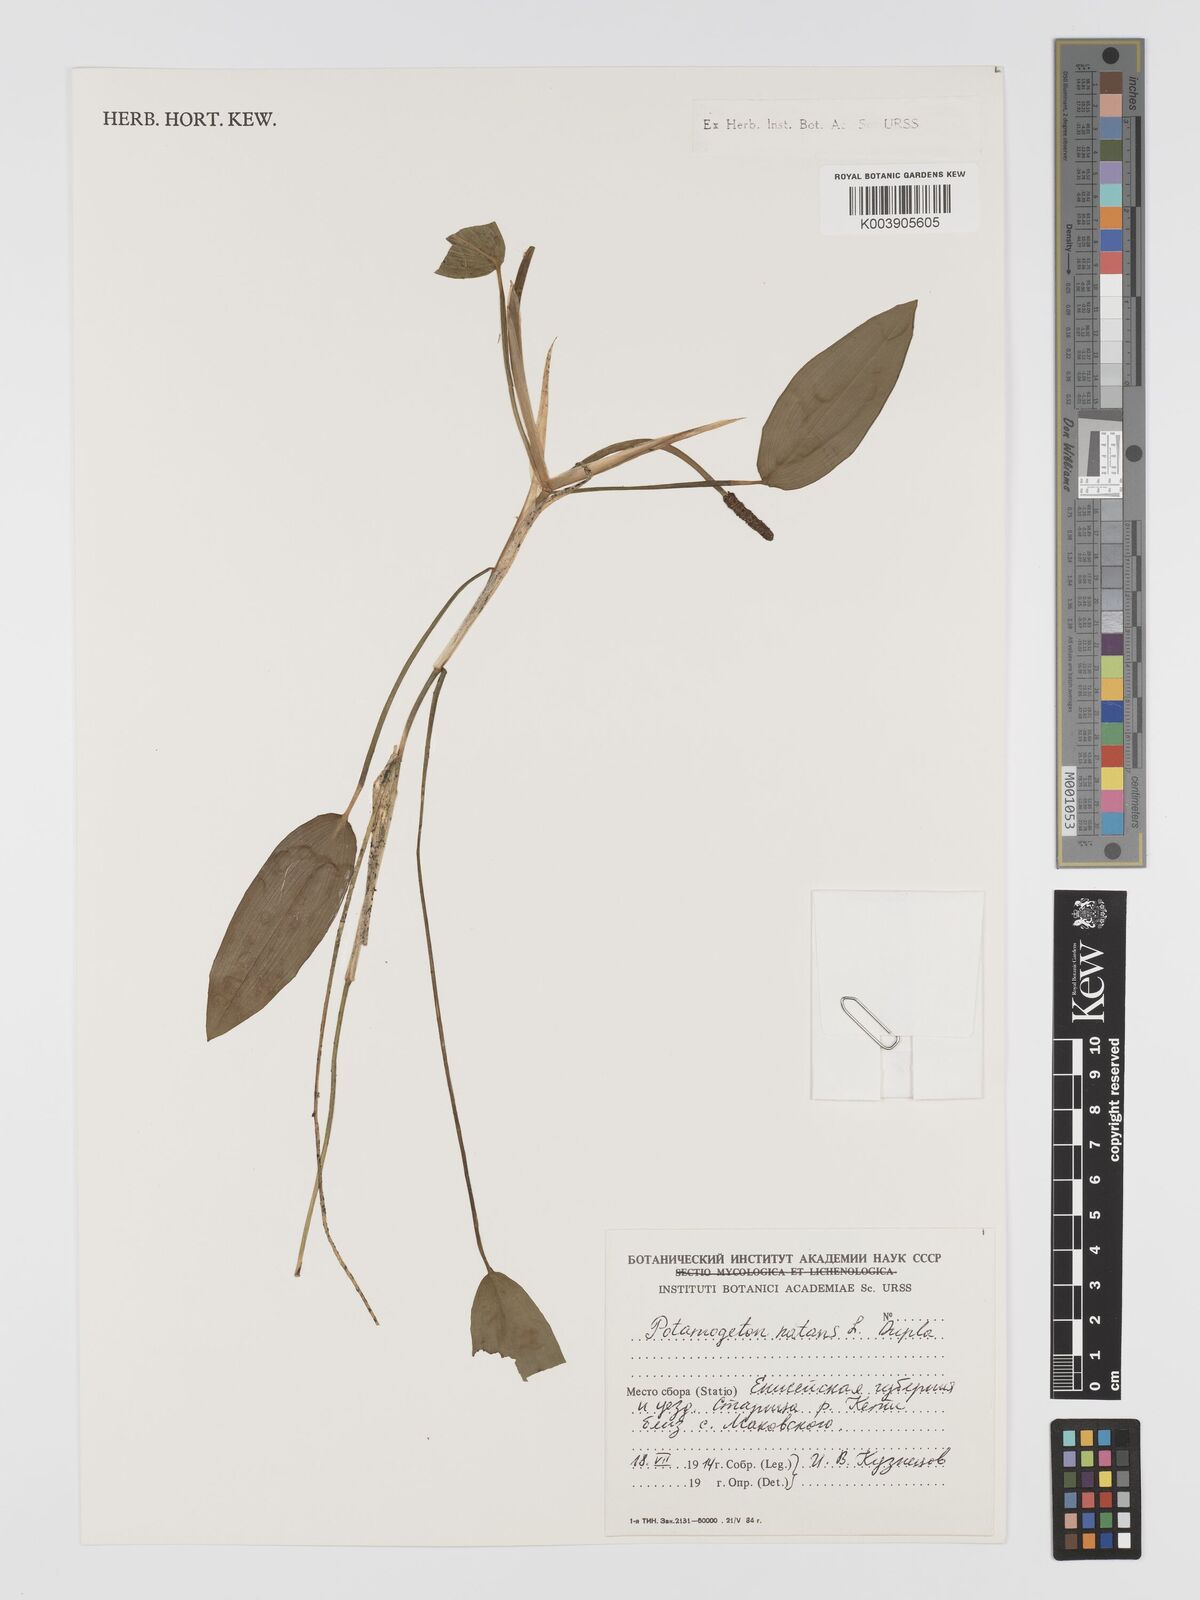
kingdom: Plantae
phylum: Tracheophyta
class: Liliopsida
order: Alismatales
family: Potamogetonaceae
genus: Potamogeton
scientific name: Potamogeton natans
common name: Broad-leaved pondweed
